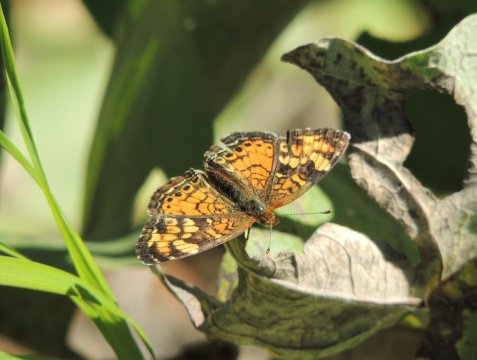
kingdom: Animalia
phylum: Arthropoda
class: Insecta
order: Lepidoptera
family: Nymphalidae
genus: Phyciodes
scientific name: Phyciodes tharos
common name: Field Crescent
